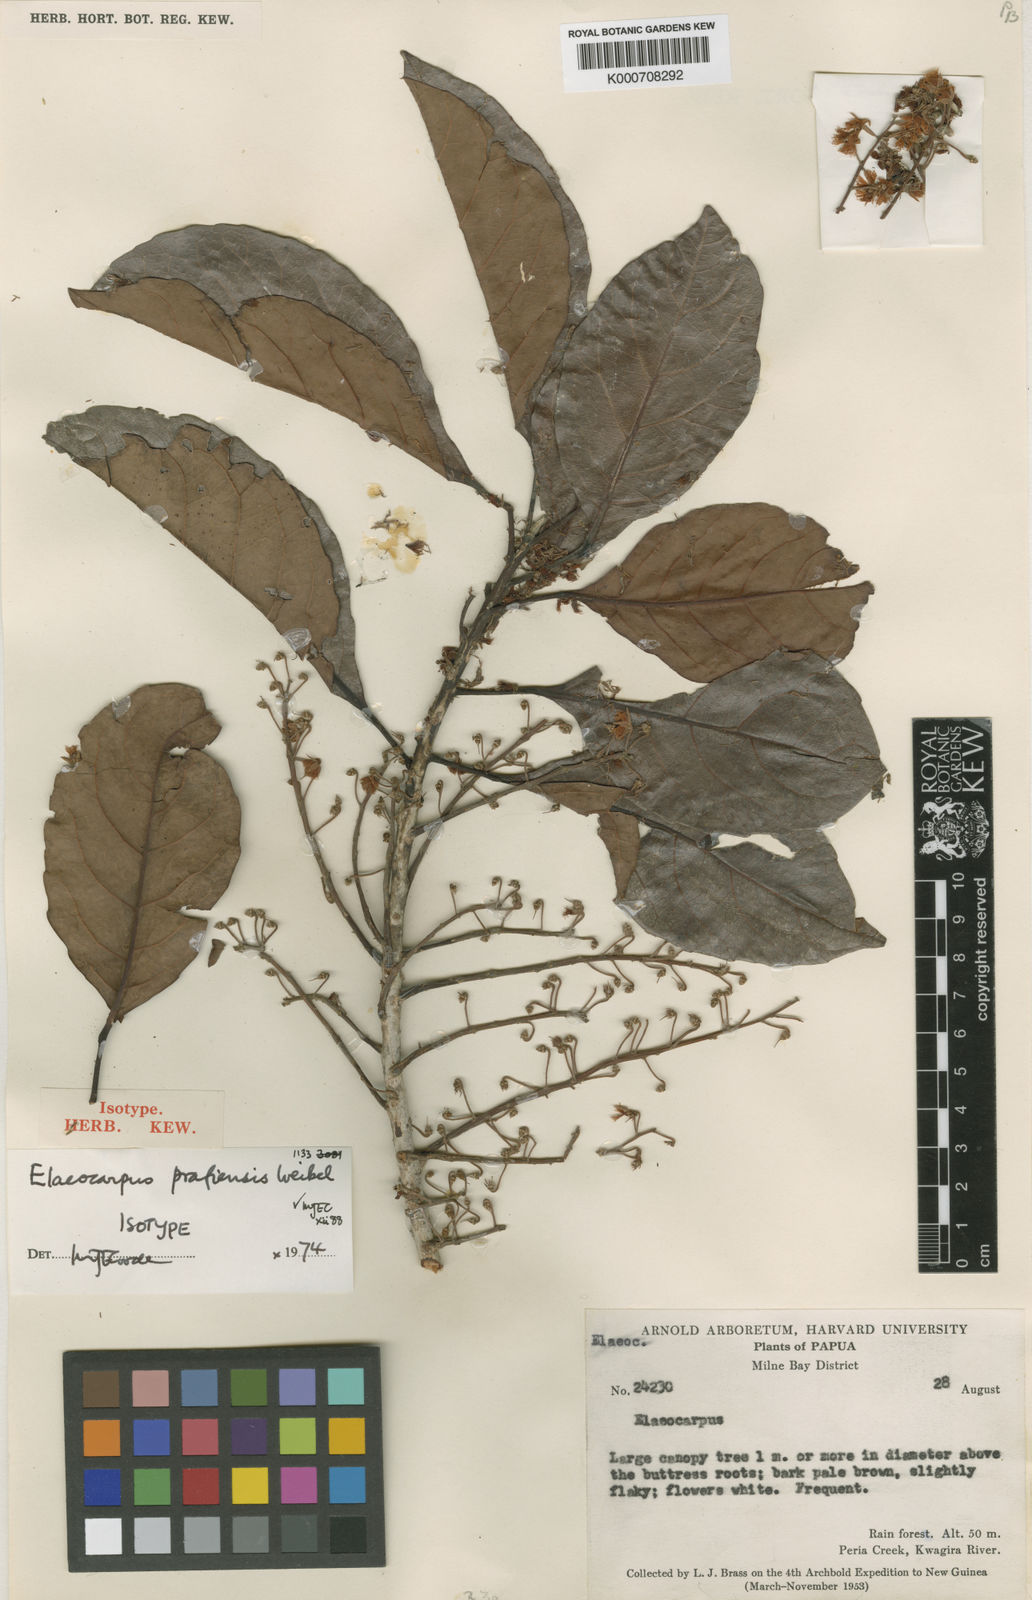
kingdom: Plantae
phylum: Tracheophyta
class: Magnoliopsida
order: Oxalidales
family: Elaeocarpaceae
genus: Elaeocarpus
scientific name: Elaeocarpus prafiensis
